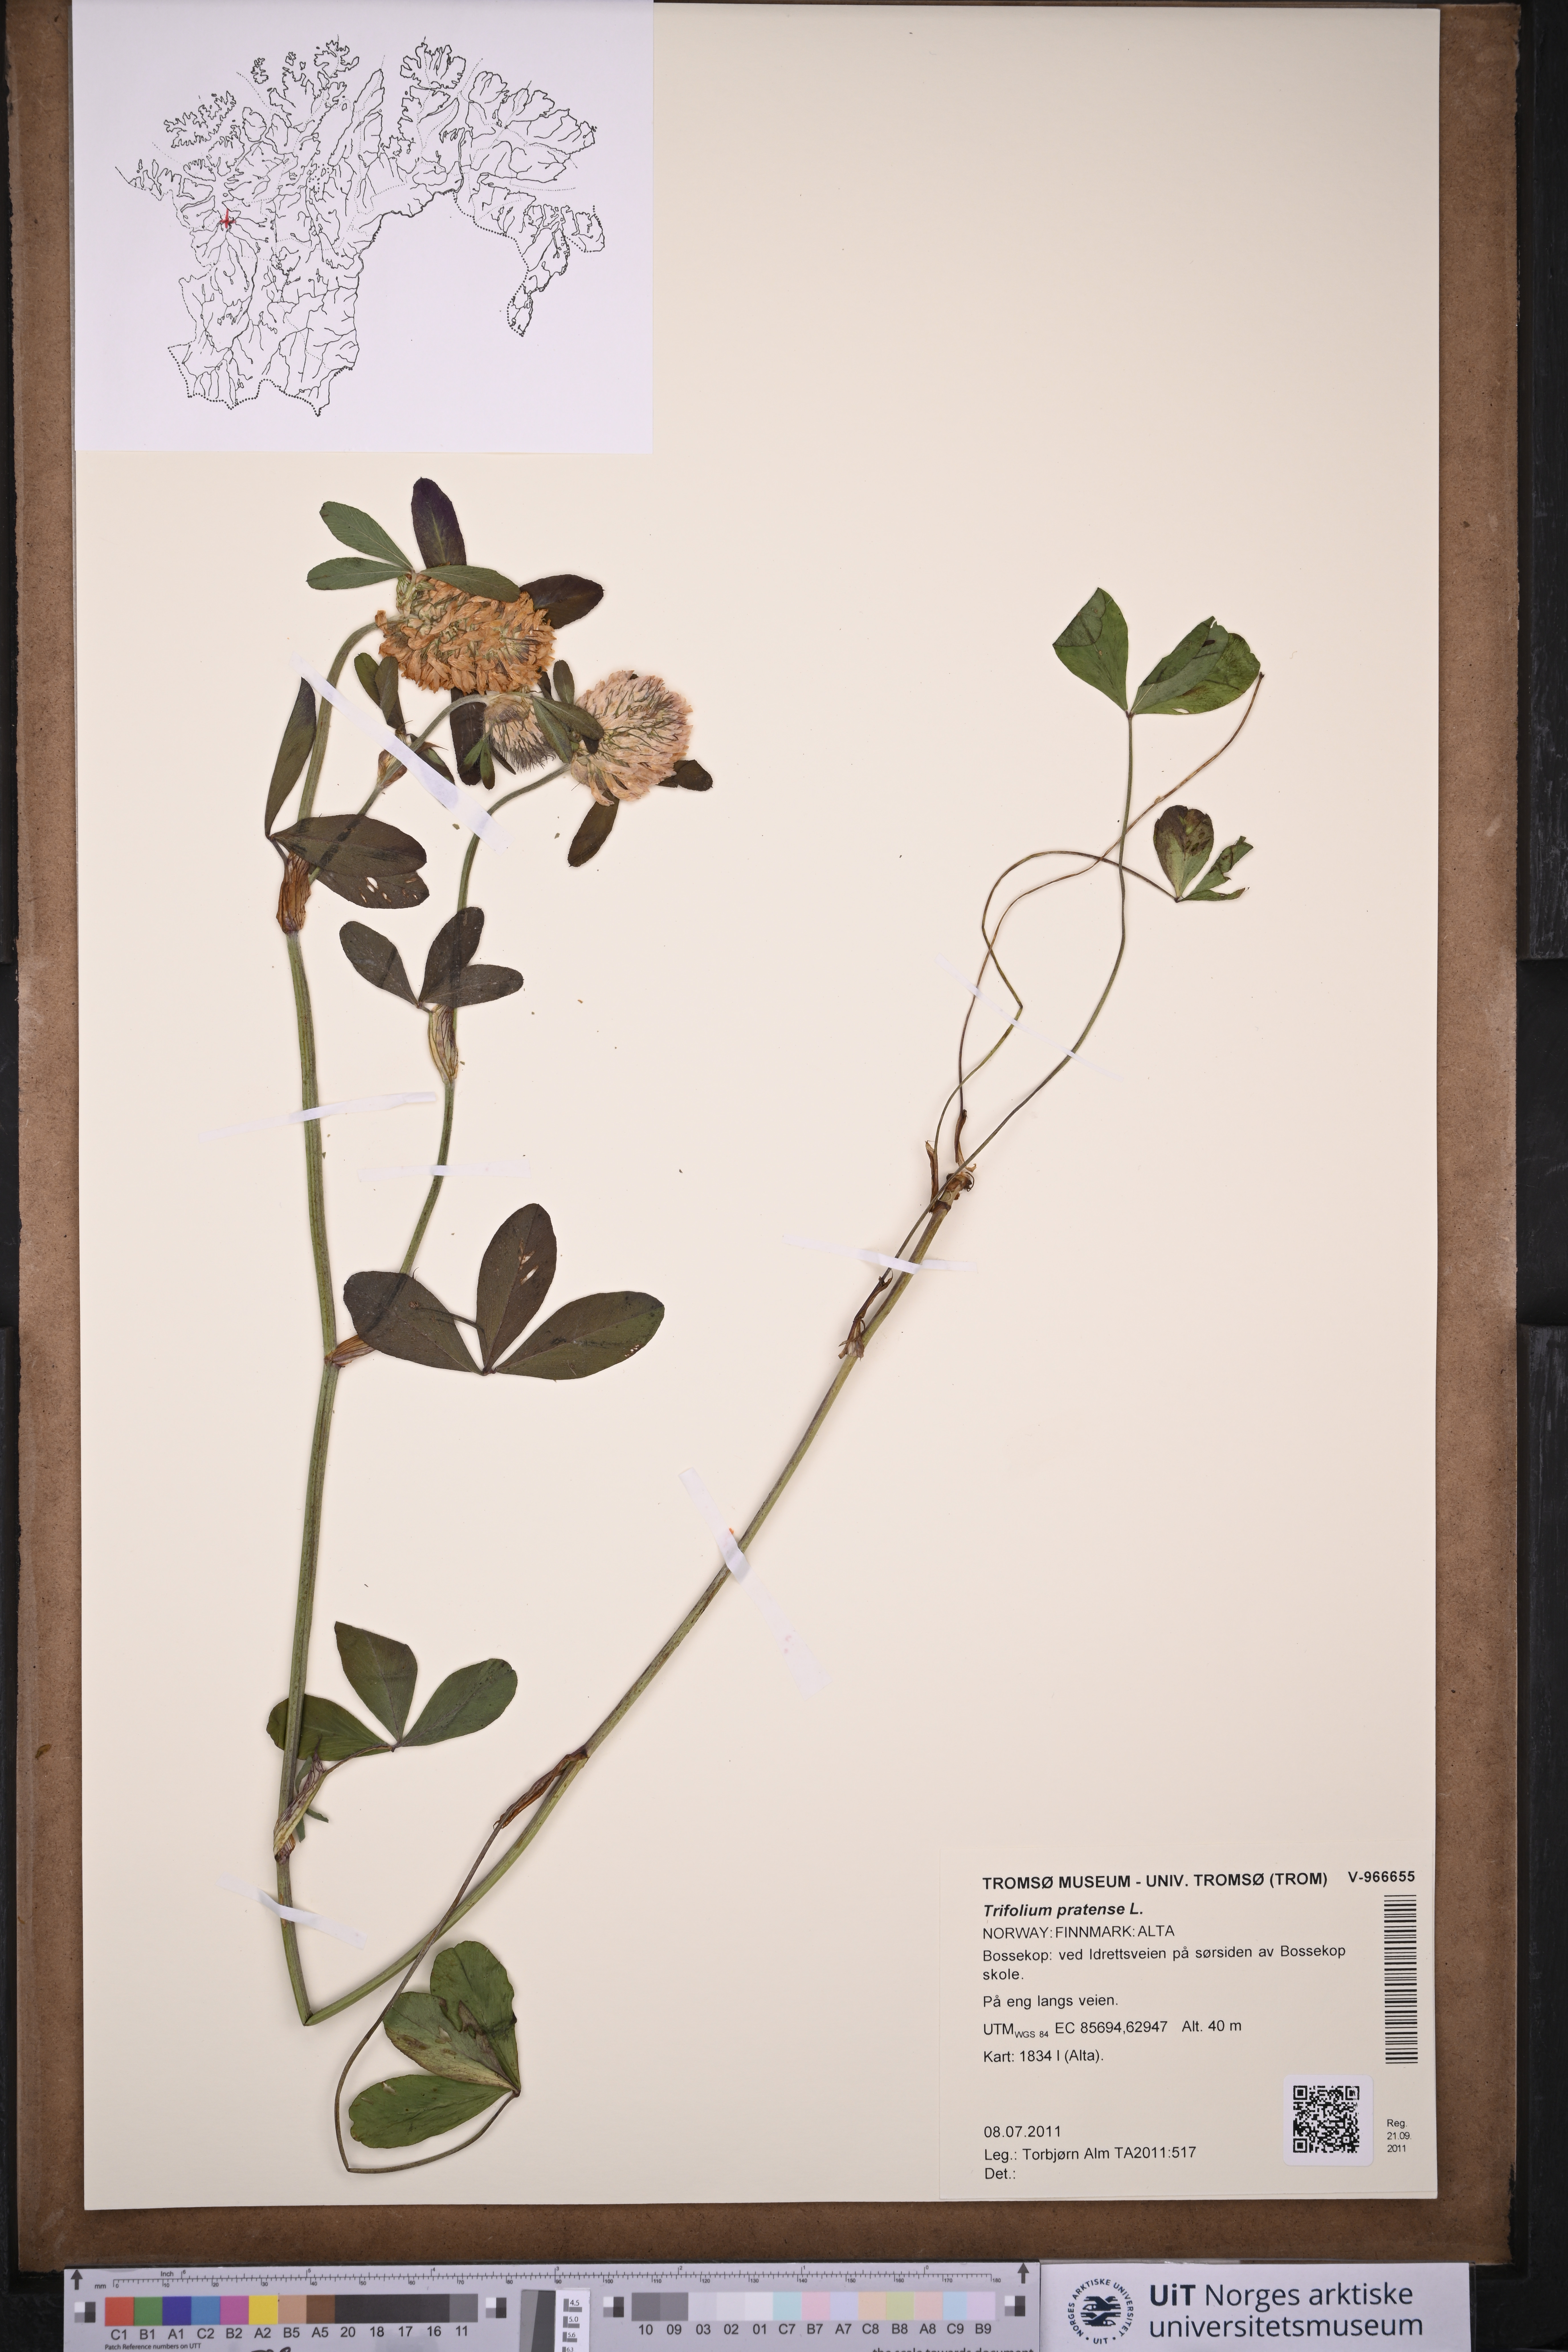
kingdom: Plantae
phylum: Tracheophyta
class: Magnoliopsida
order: Fabales
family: Fabaceae
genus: Trifolium
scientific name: Trifolium pratense
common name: Red clover
